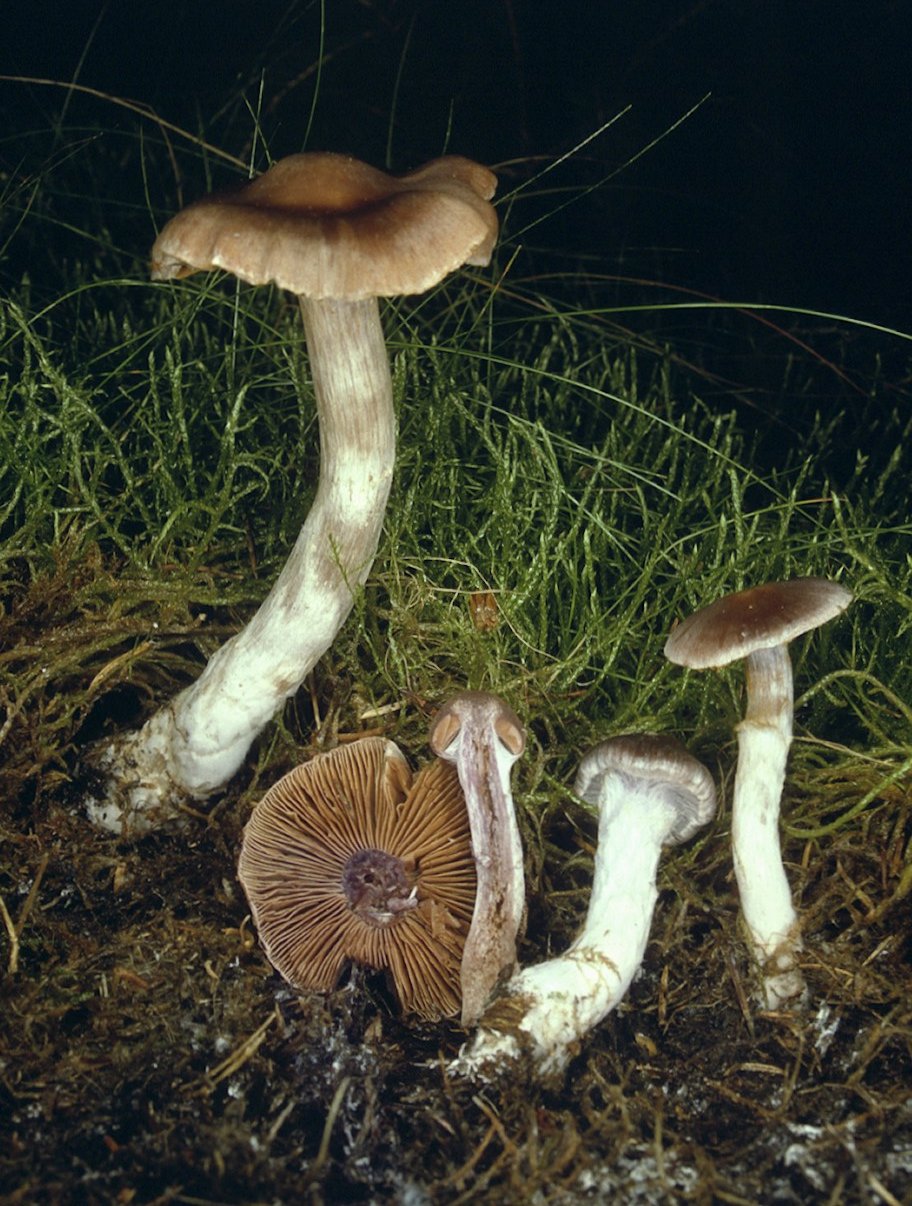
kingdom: Fungi
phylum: Basidiomycota
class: Agaricomycetes
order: Agaricales
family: Cortinariaceae
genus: Cortinarius
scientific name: Cortinarius
